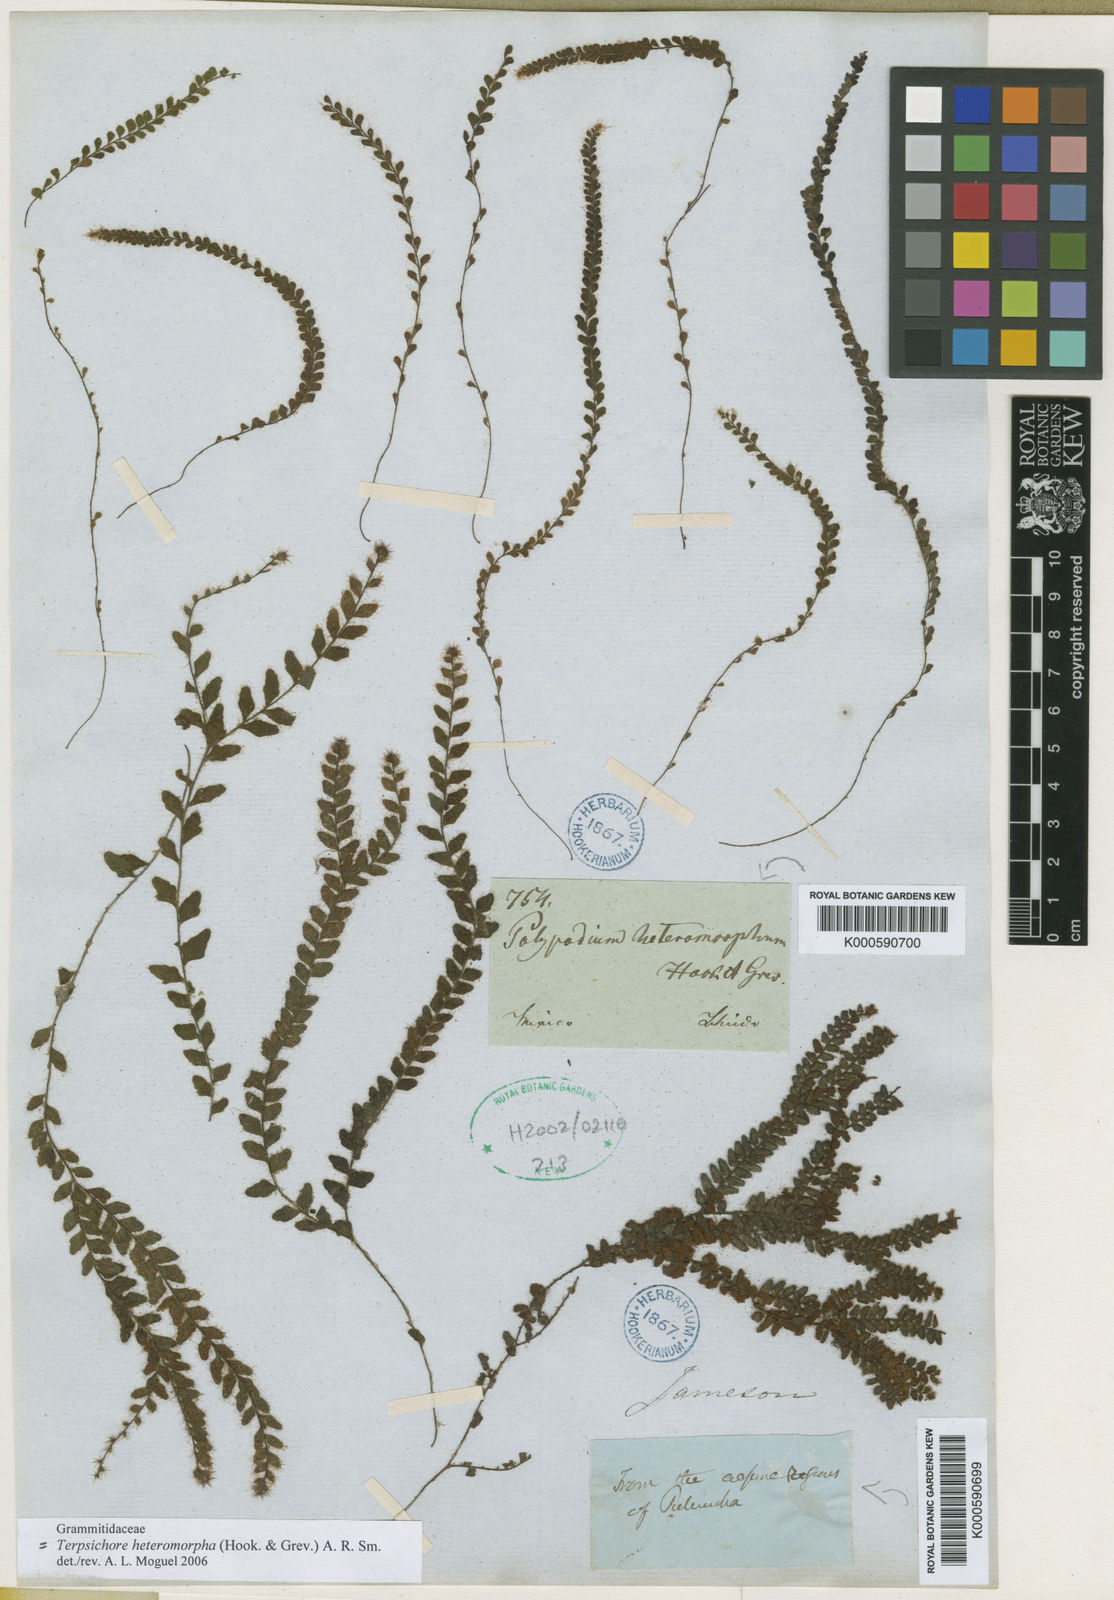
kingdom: Plantae
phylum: Tracheophyta
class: Polypodiopsida
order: Polypodiales
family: Polypodiaceae
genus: Alansmia
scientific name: Alansmia heteromorpha
